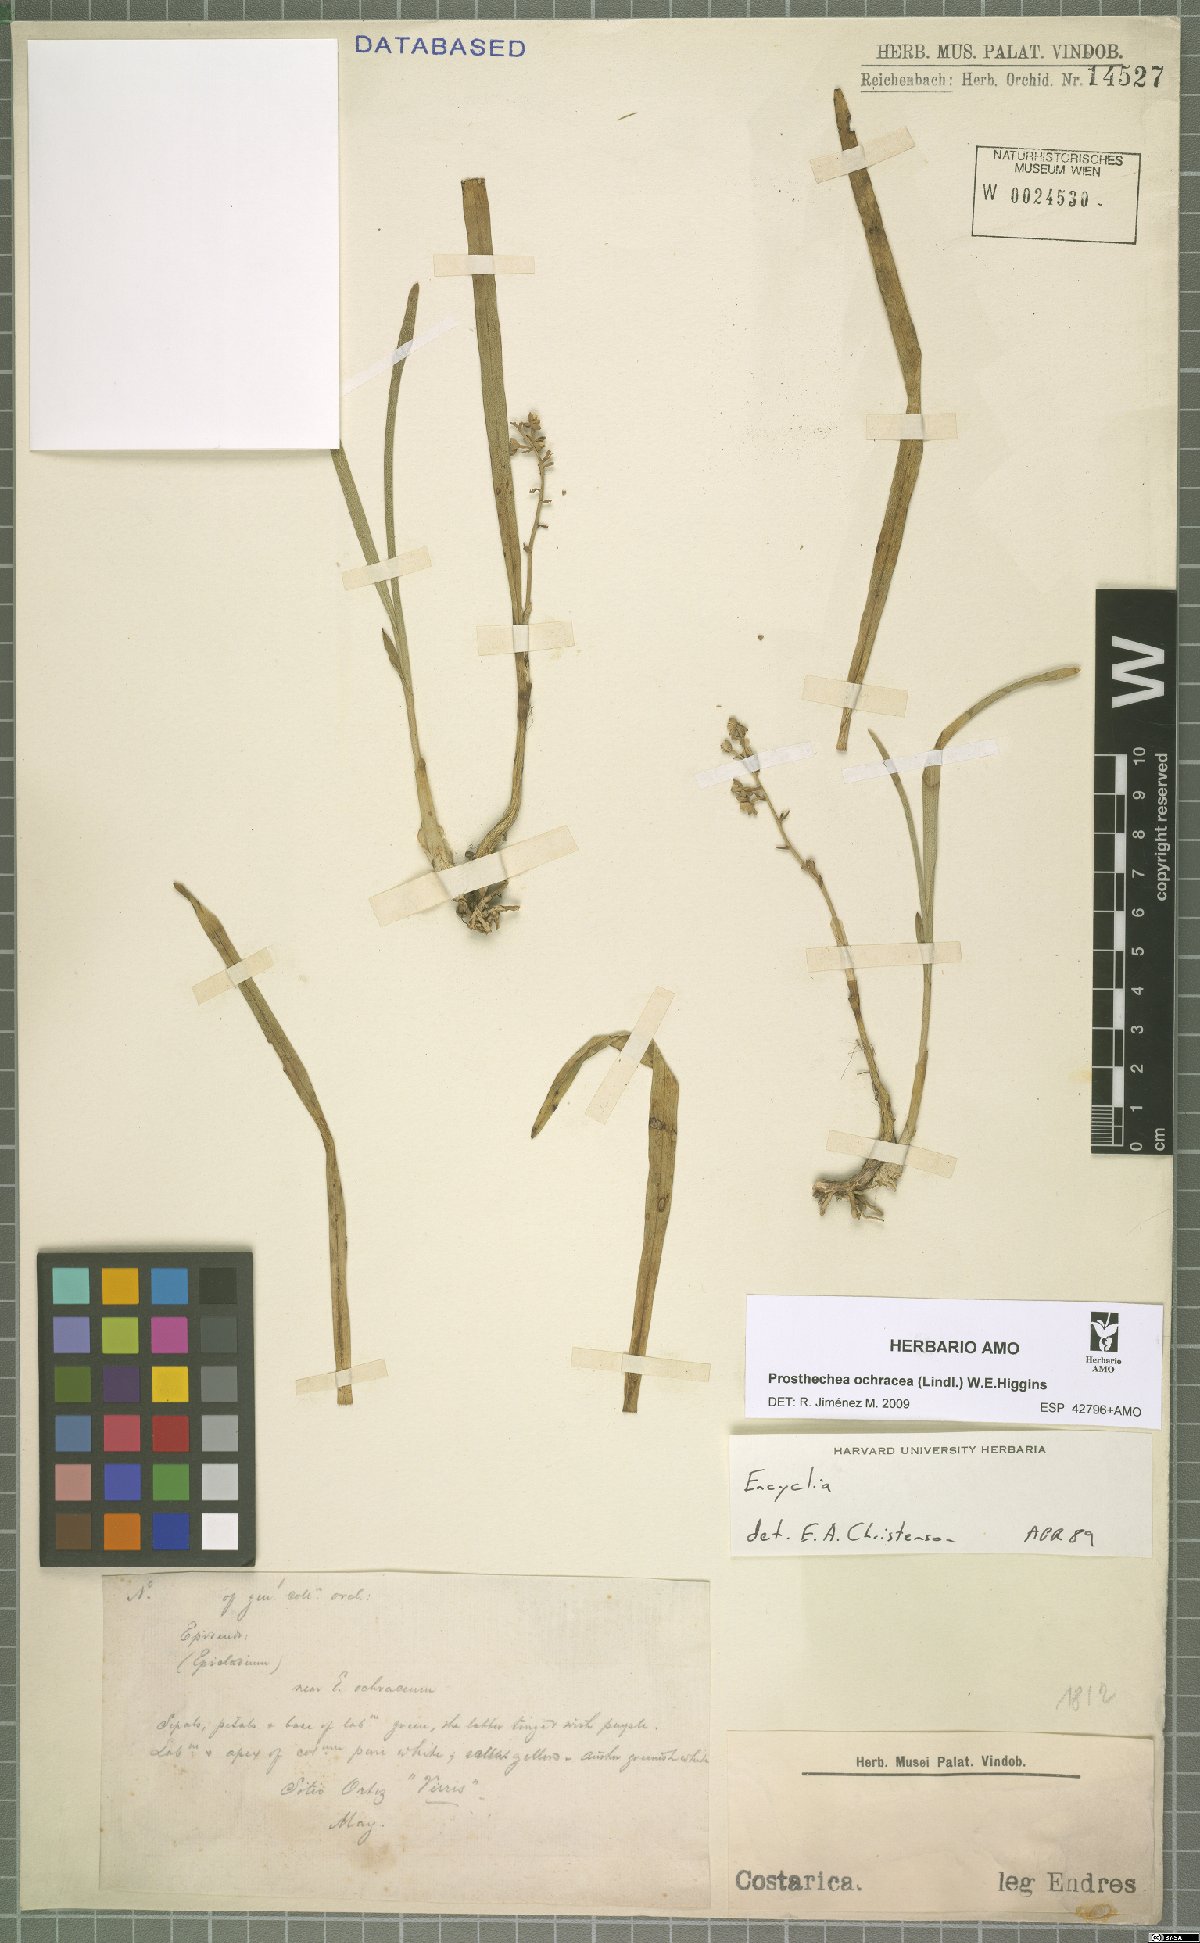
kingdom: Plantae
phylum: Tracheophyta
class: Liliopsida
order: Asparagales
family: Orchidaceae
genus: Prosthechea
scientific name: Prosthechea ochracea
